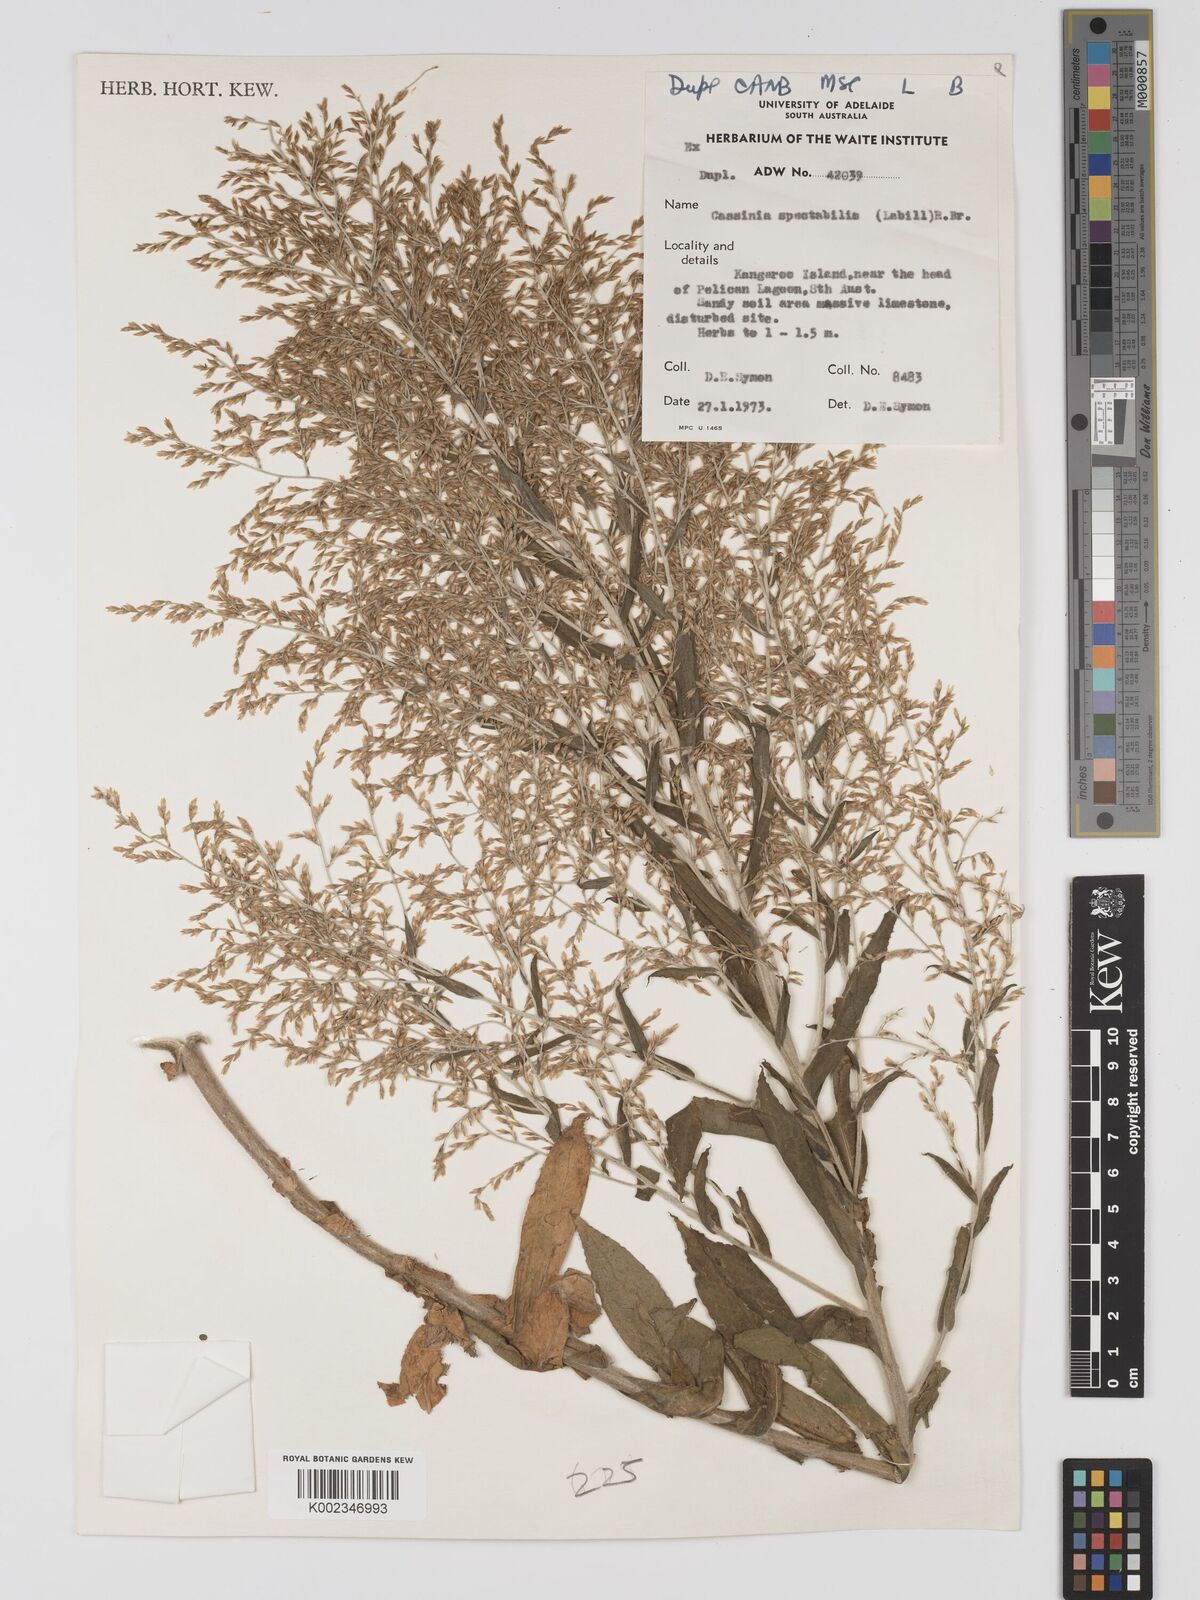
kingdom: Plantae
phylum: Tracheophyta
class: Magnoliopsida
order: Asterales
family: Asteraceae
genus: Apalochlamys
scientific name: Apalochlamys spectabilis
